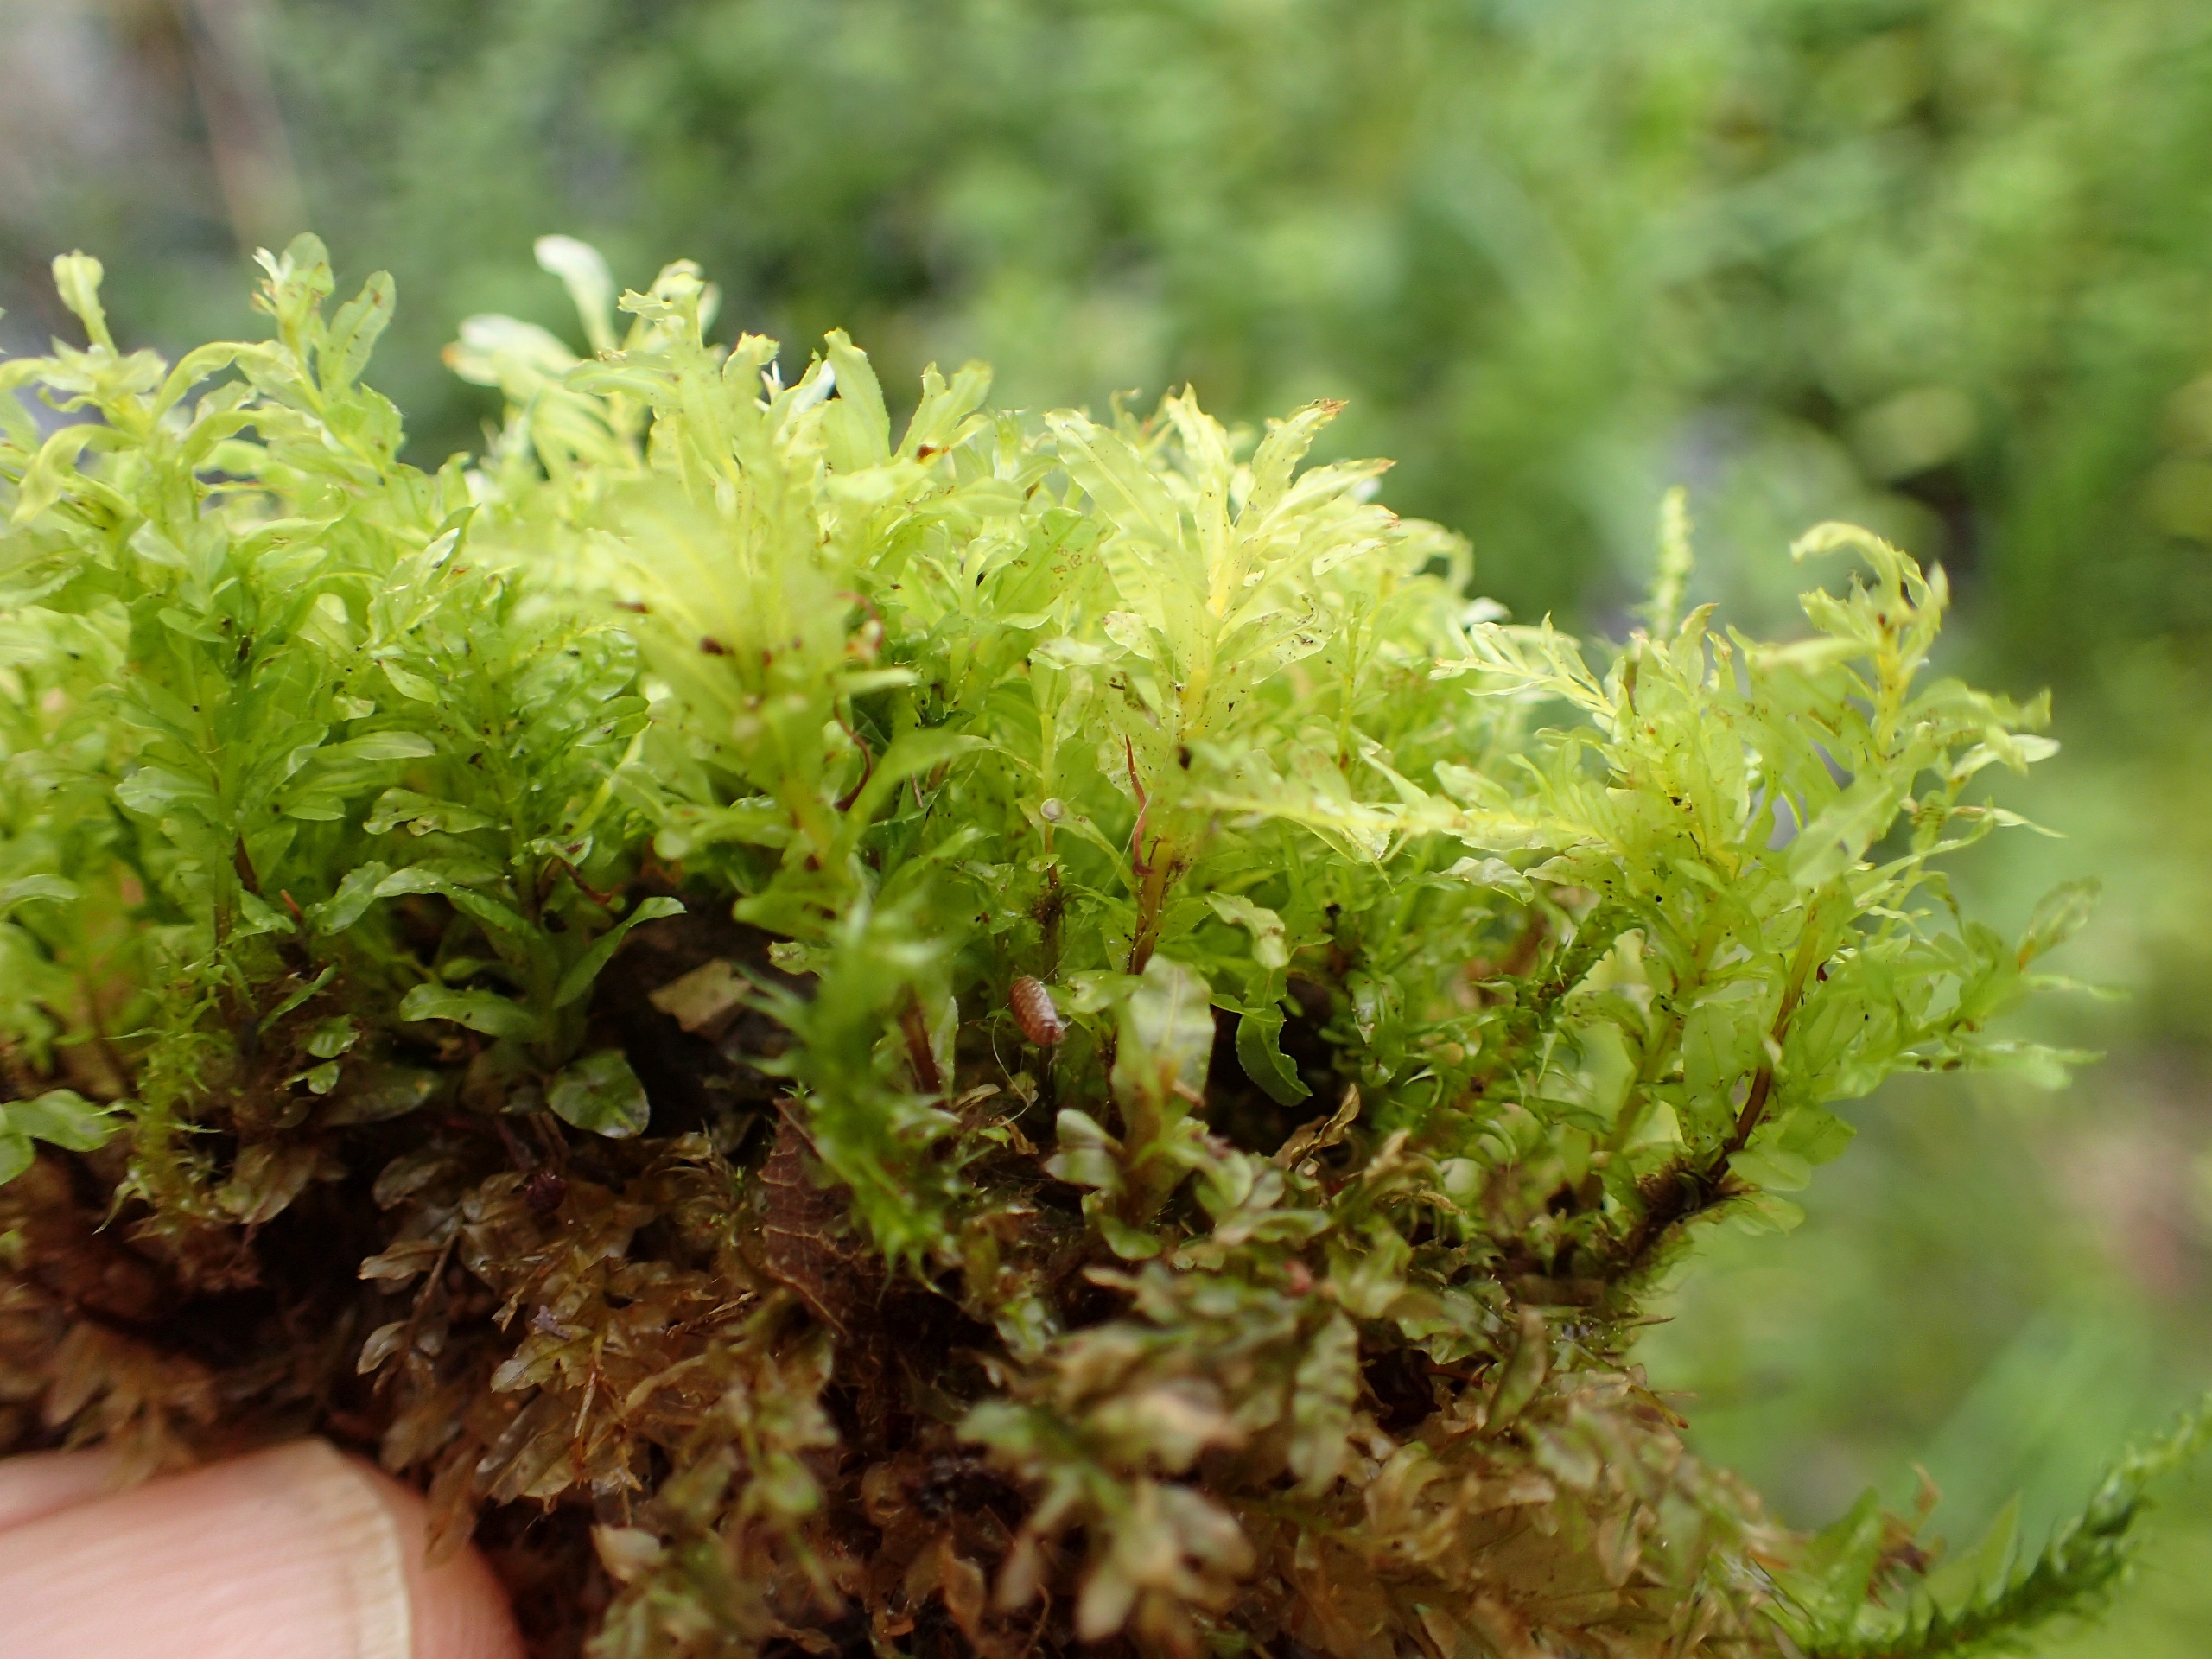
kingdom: Plantae
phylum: Bryophyta
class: Bryopsida
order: Bryales
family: Mniaceae
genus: Plagiomnium
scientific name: Plagiomnium undulatum
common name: Bølget krybstjerne
